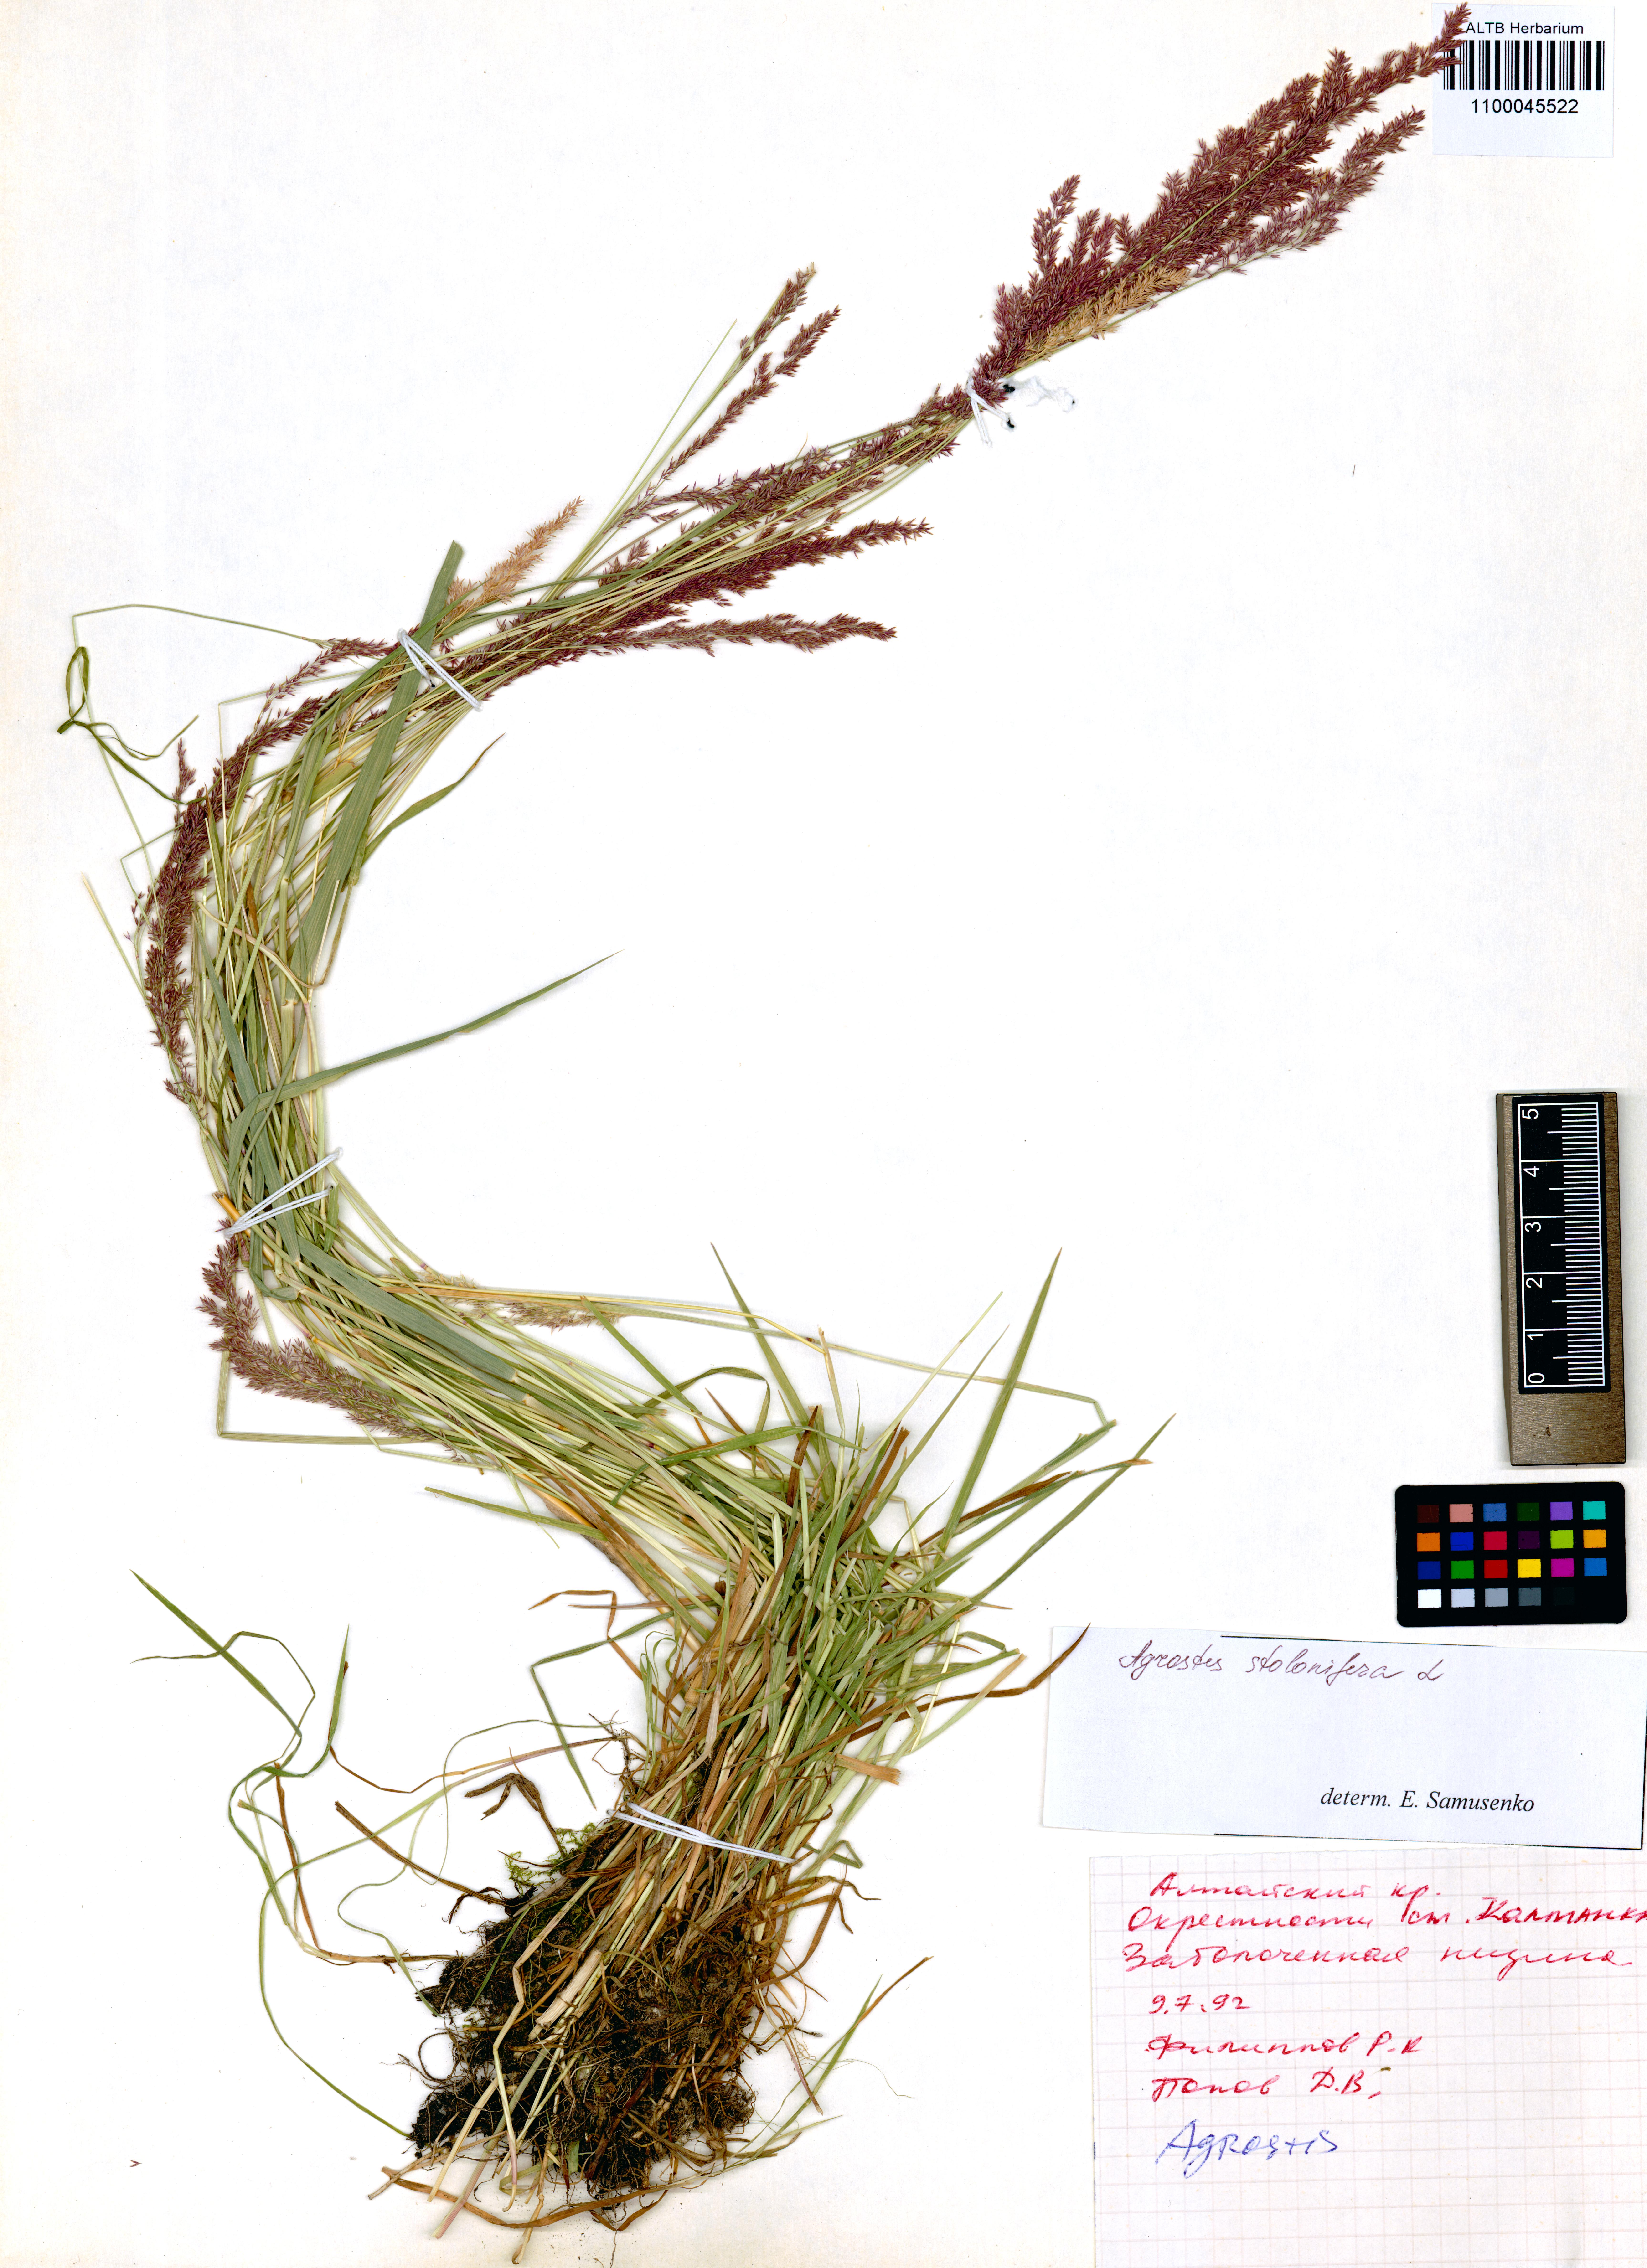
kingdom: Plantae
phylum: Tracheophyta
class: Liliopsida
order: Poales
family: Poaceae
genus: Agrostis
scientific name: Agrostis stolonifera
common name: Creeping bentgrass
